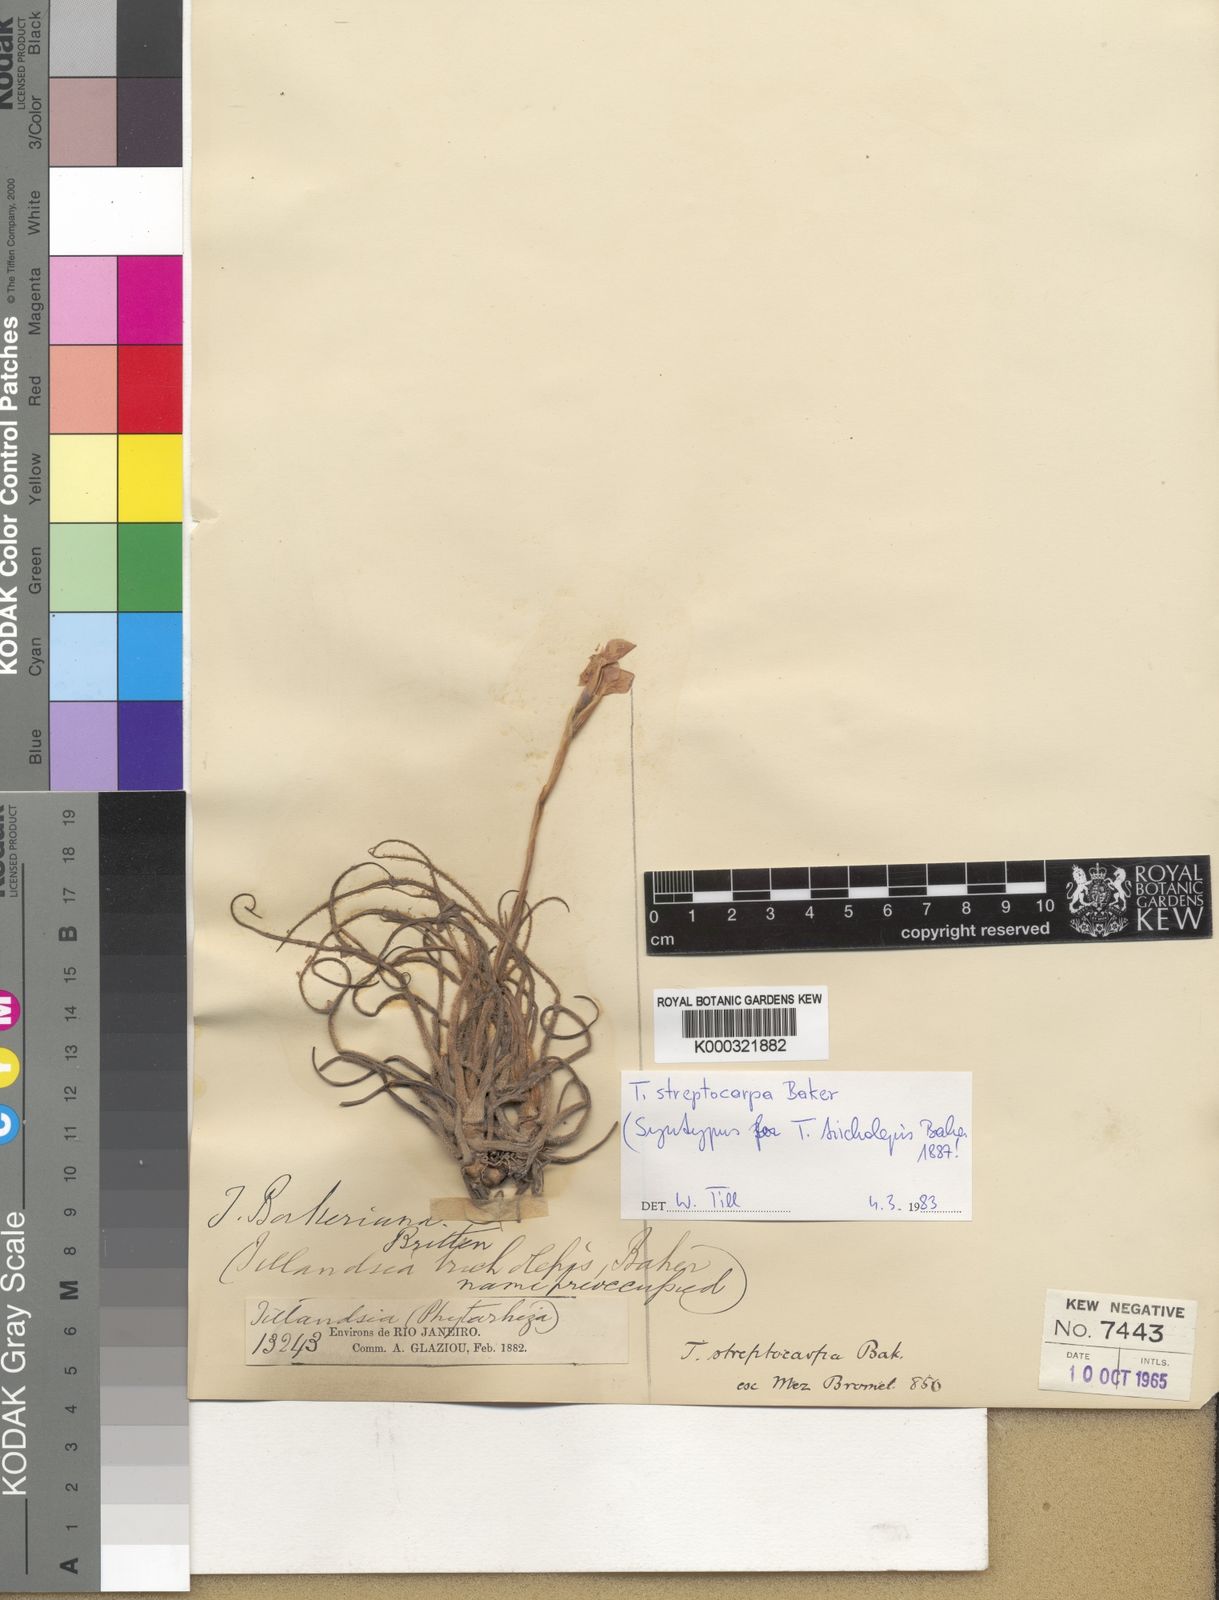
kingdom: Plantae
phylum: Tracheophyta
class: Liliopsida
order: Poales
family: Bromeliaceae
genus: Tillandsia
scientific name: Tillandsia streptocarpa
